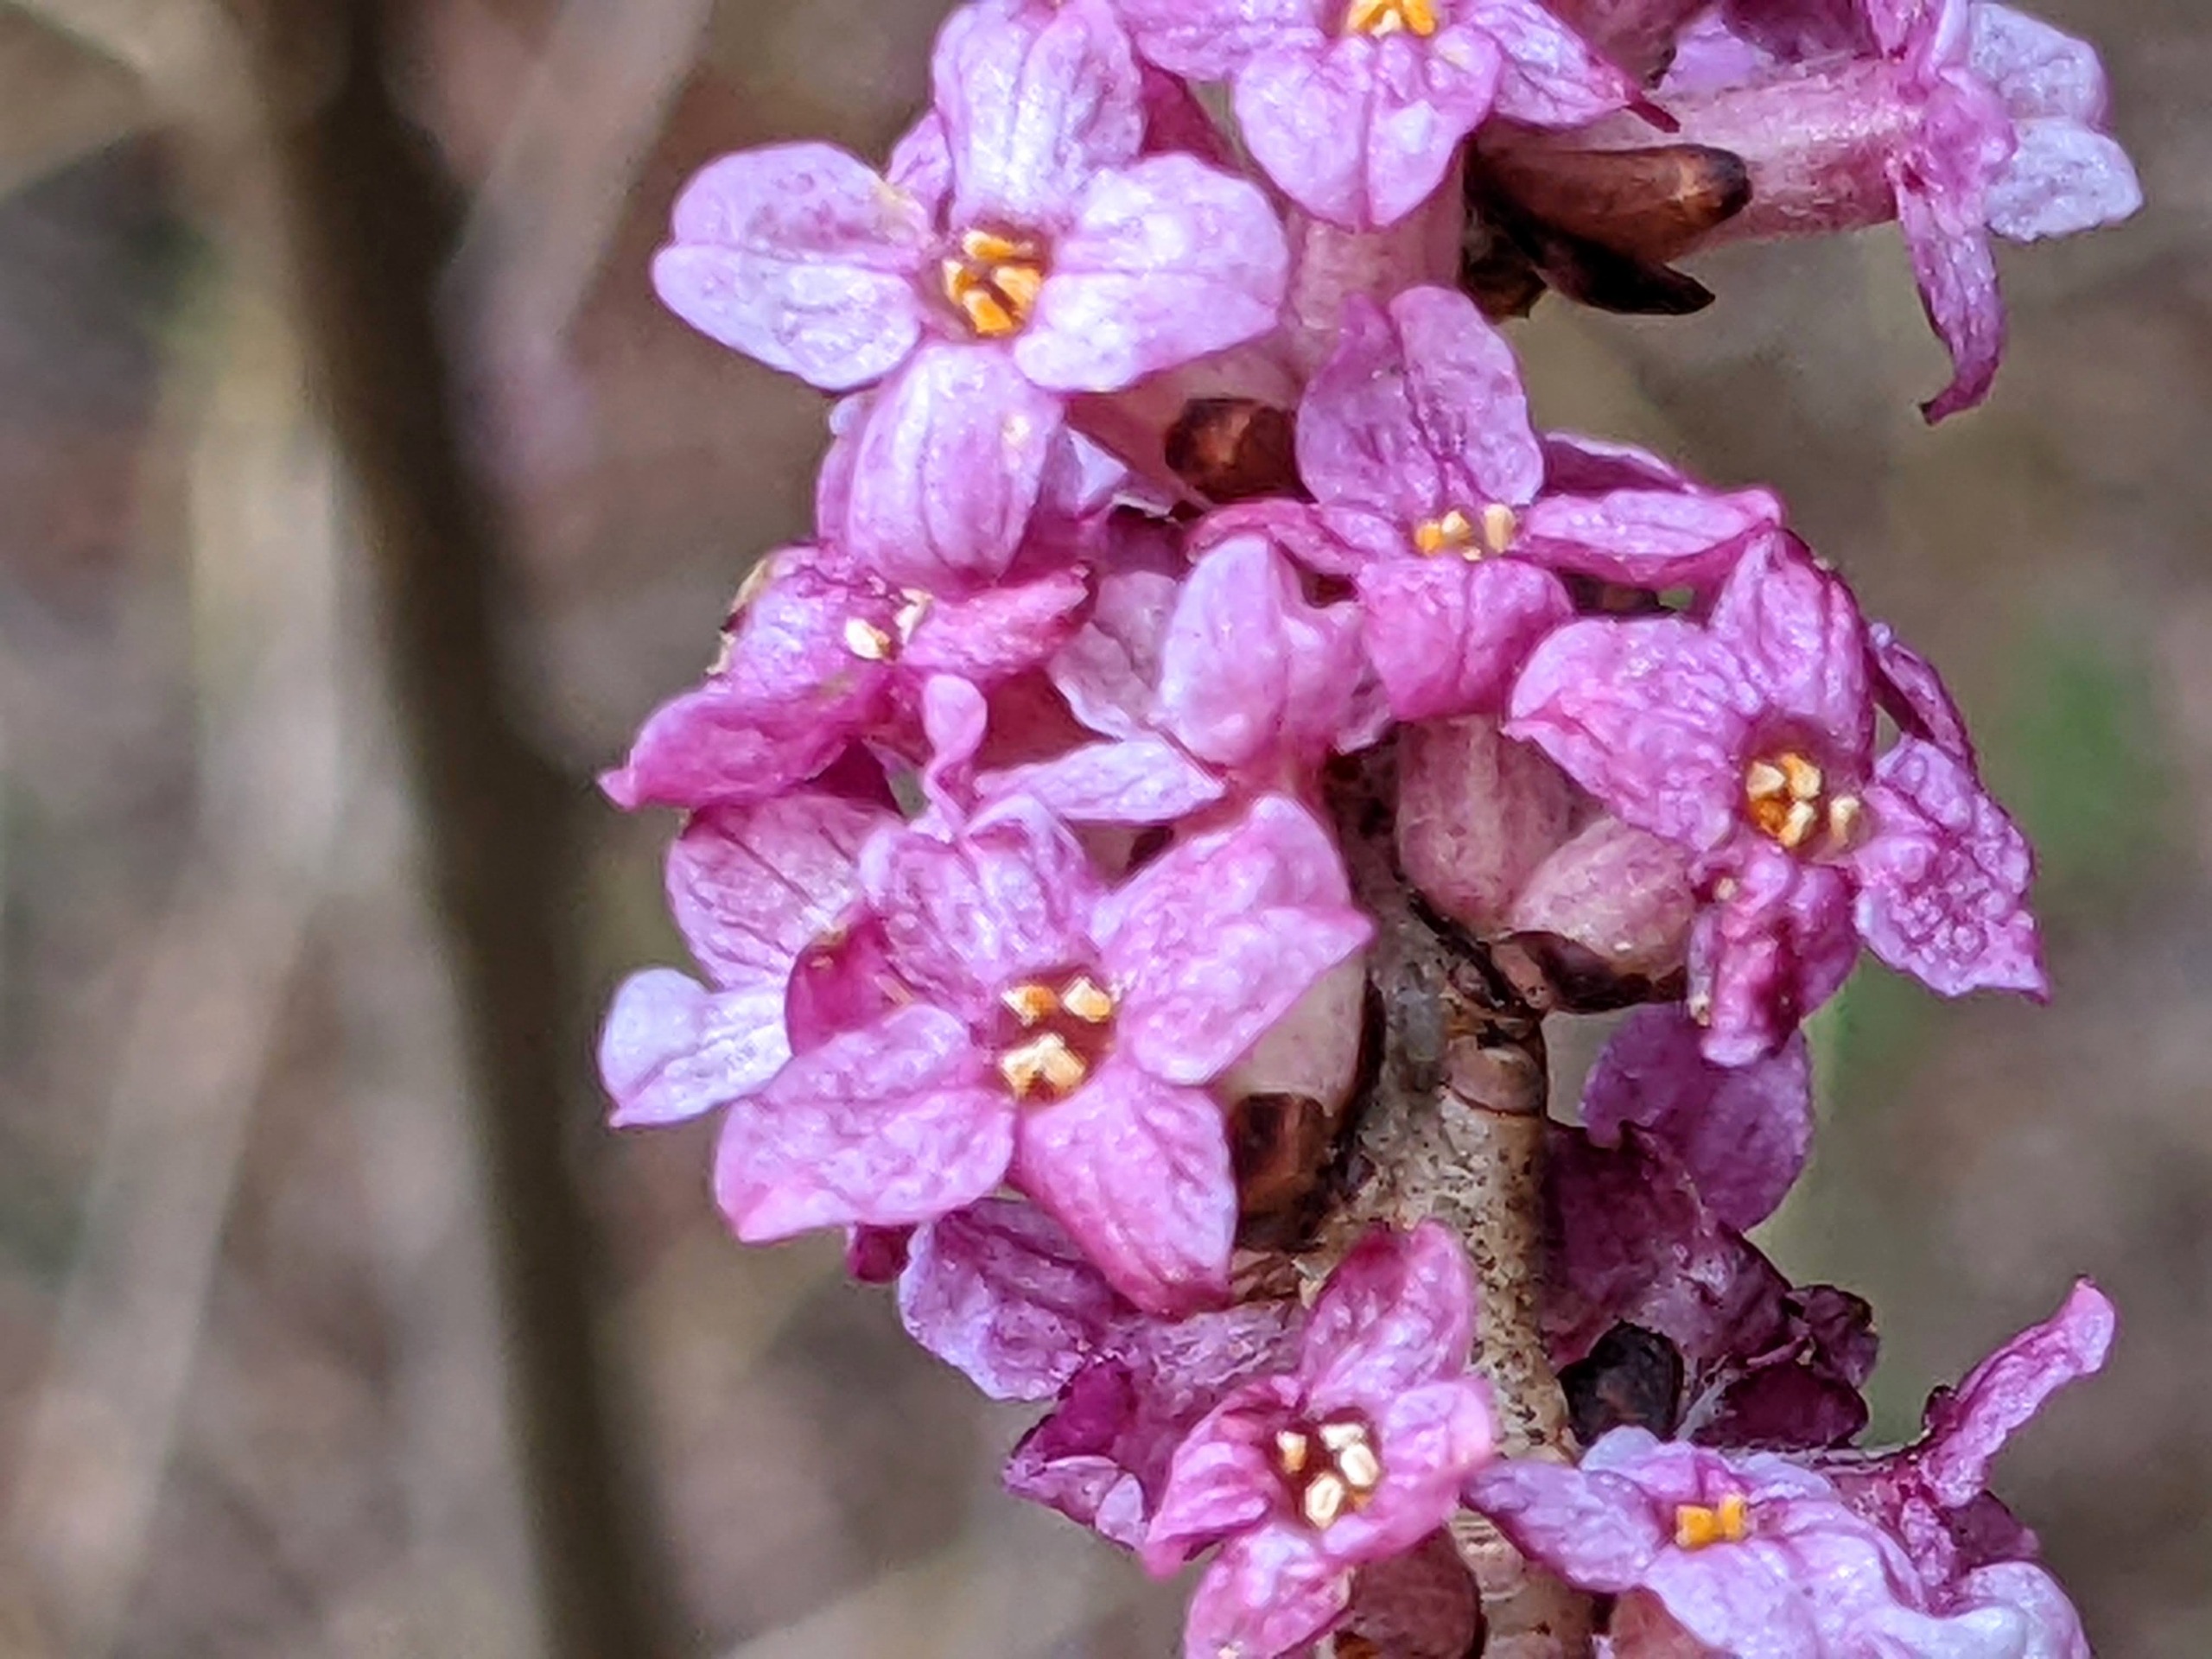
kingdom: Plantae
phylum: Tracheophyta
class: Magnoliopsida
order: Malvales
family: Thymelaeaceae
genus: Daphne
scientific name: Daphne mezereum
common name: Pebertræ
